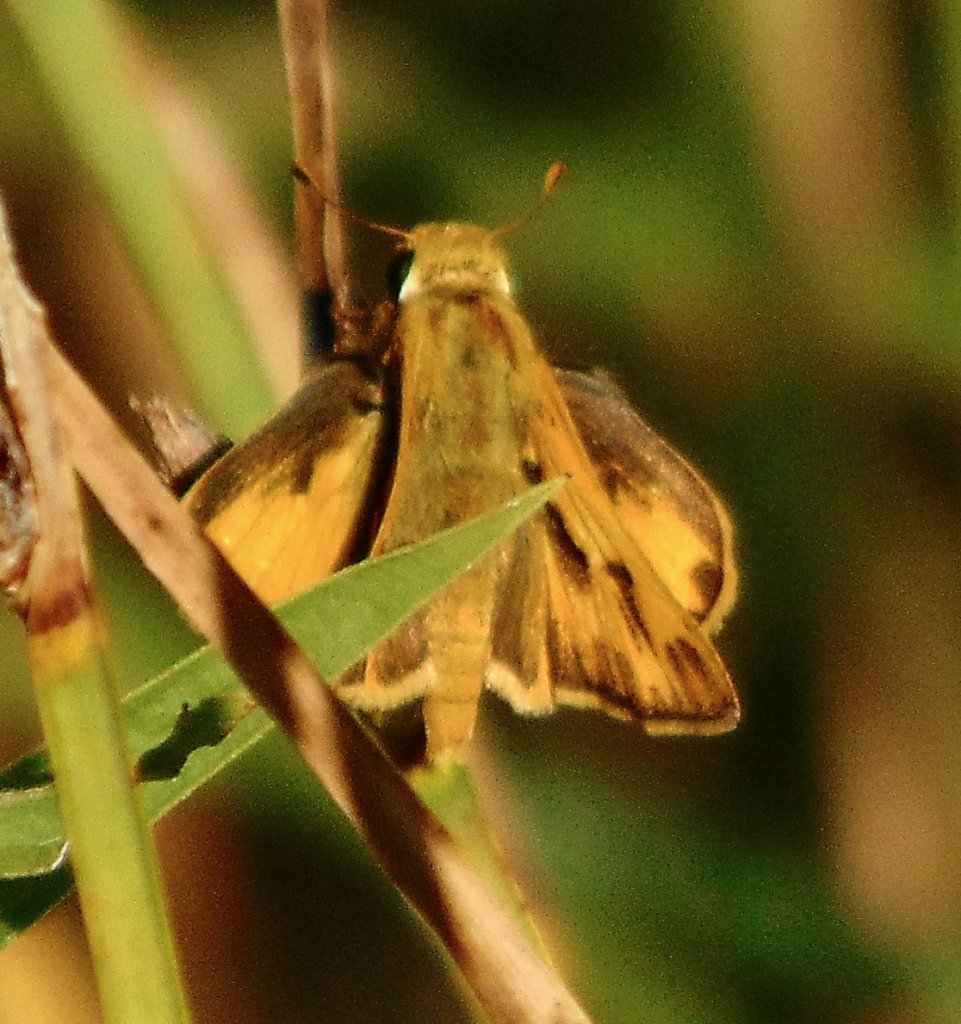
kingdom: Animalia
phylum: Arthropoda
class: Insecta
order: Lepidoptera
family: Hesperiidae
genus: Hylephila
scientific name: Hylephila phyleus
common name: Fiery Skipper
